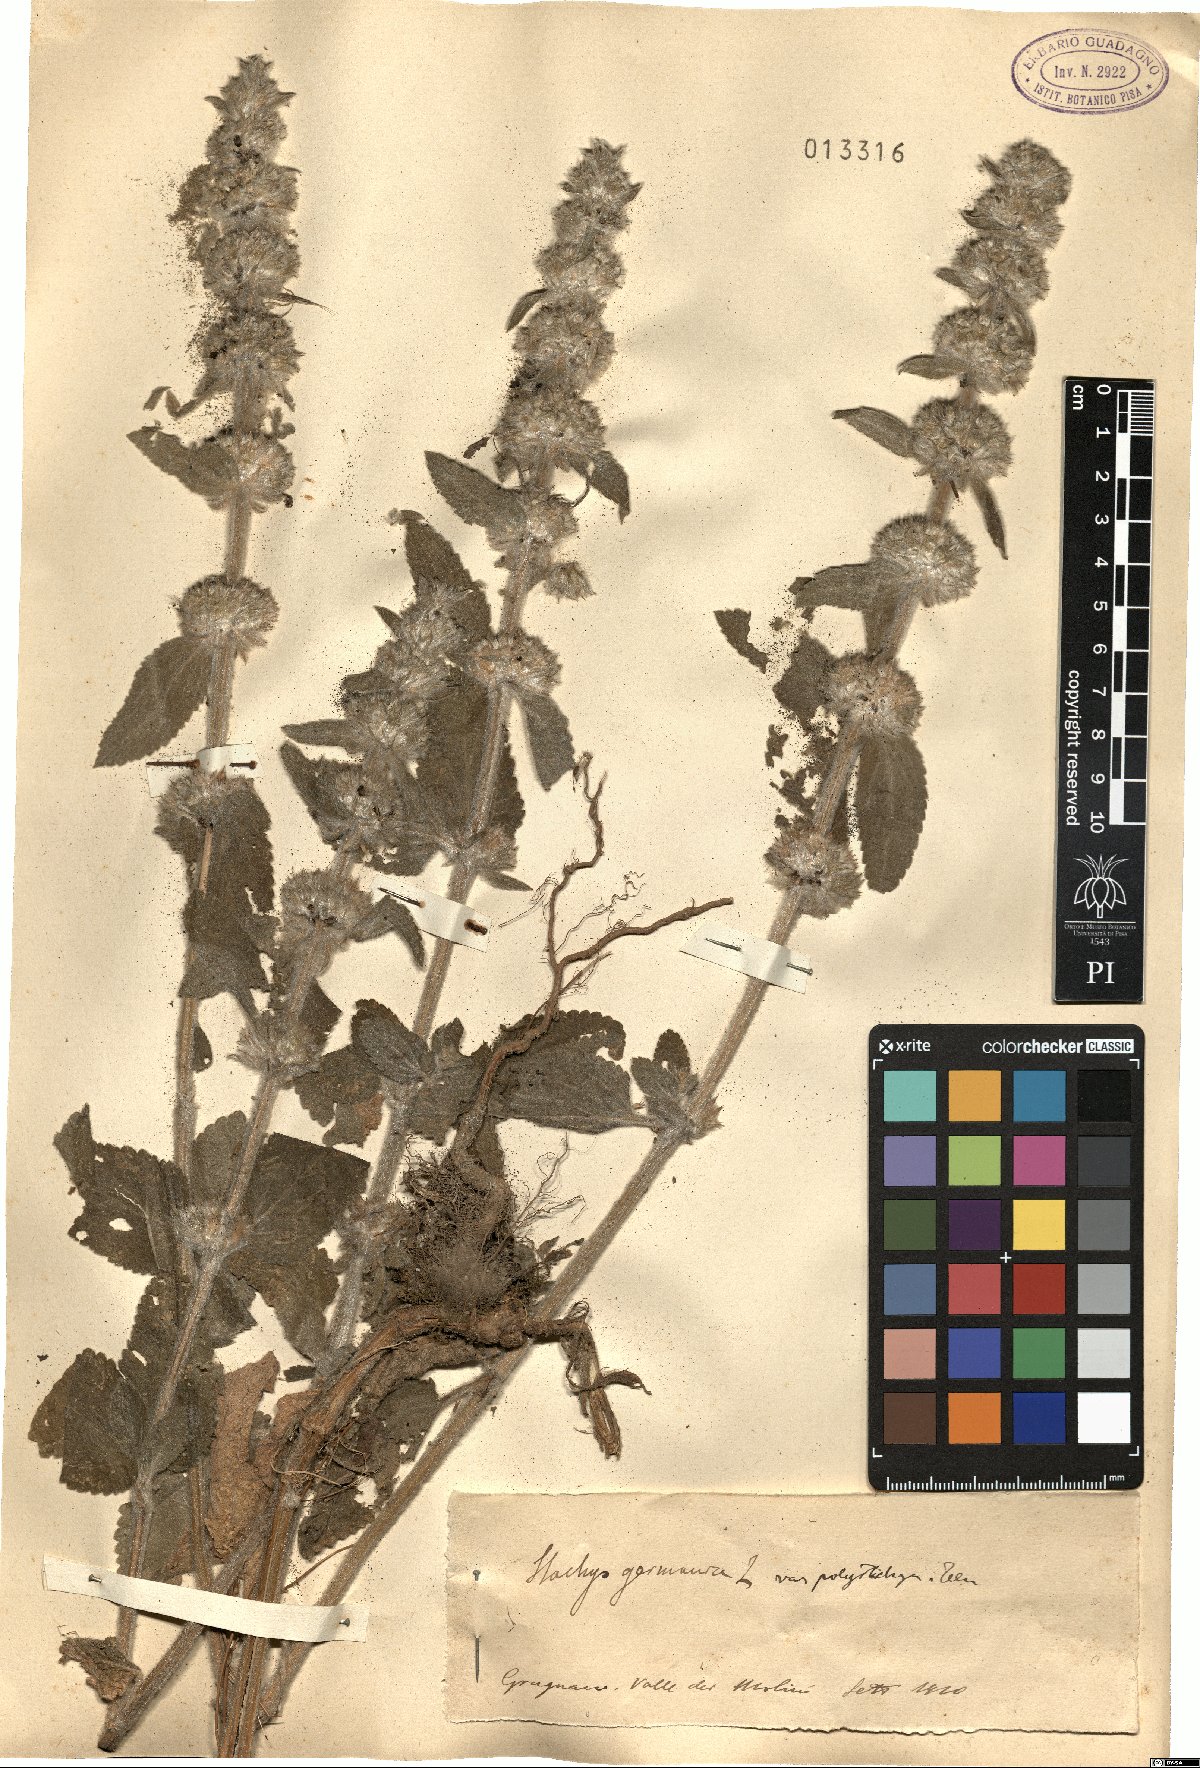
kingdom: Plantae
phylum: Tracheophyta
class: Magnoliopsida
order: Lamiales
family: Lamiaceae
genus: Stachys
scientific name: Stachys germanica
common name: Downy woundwort
